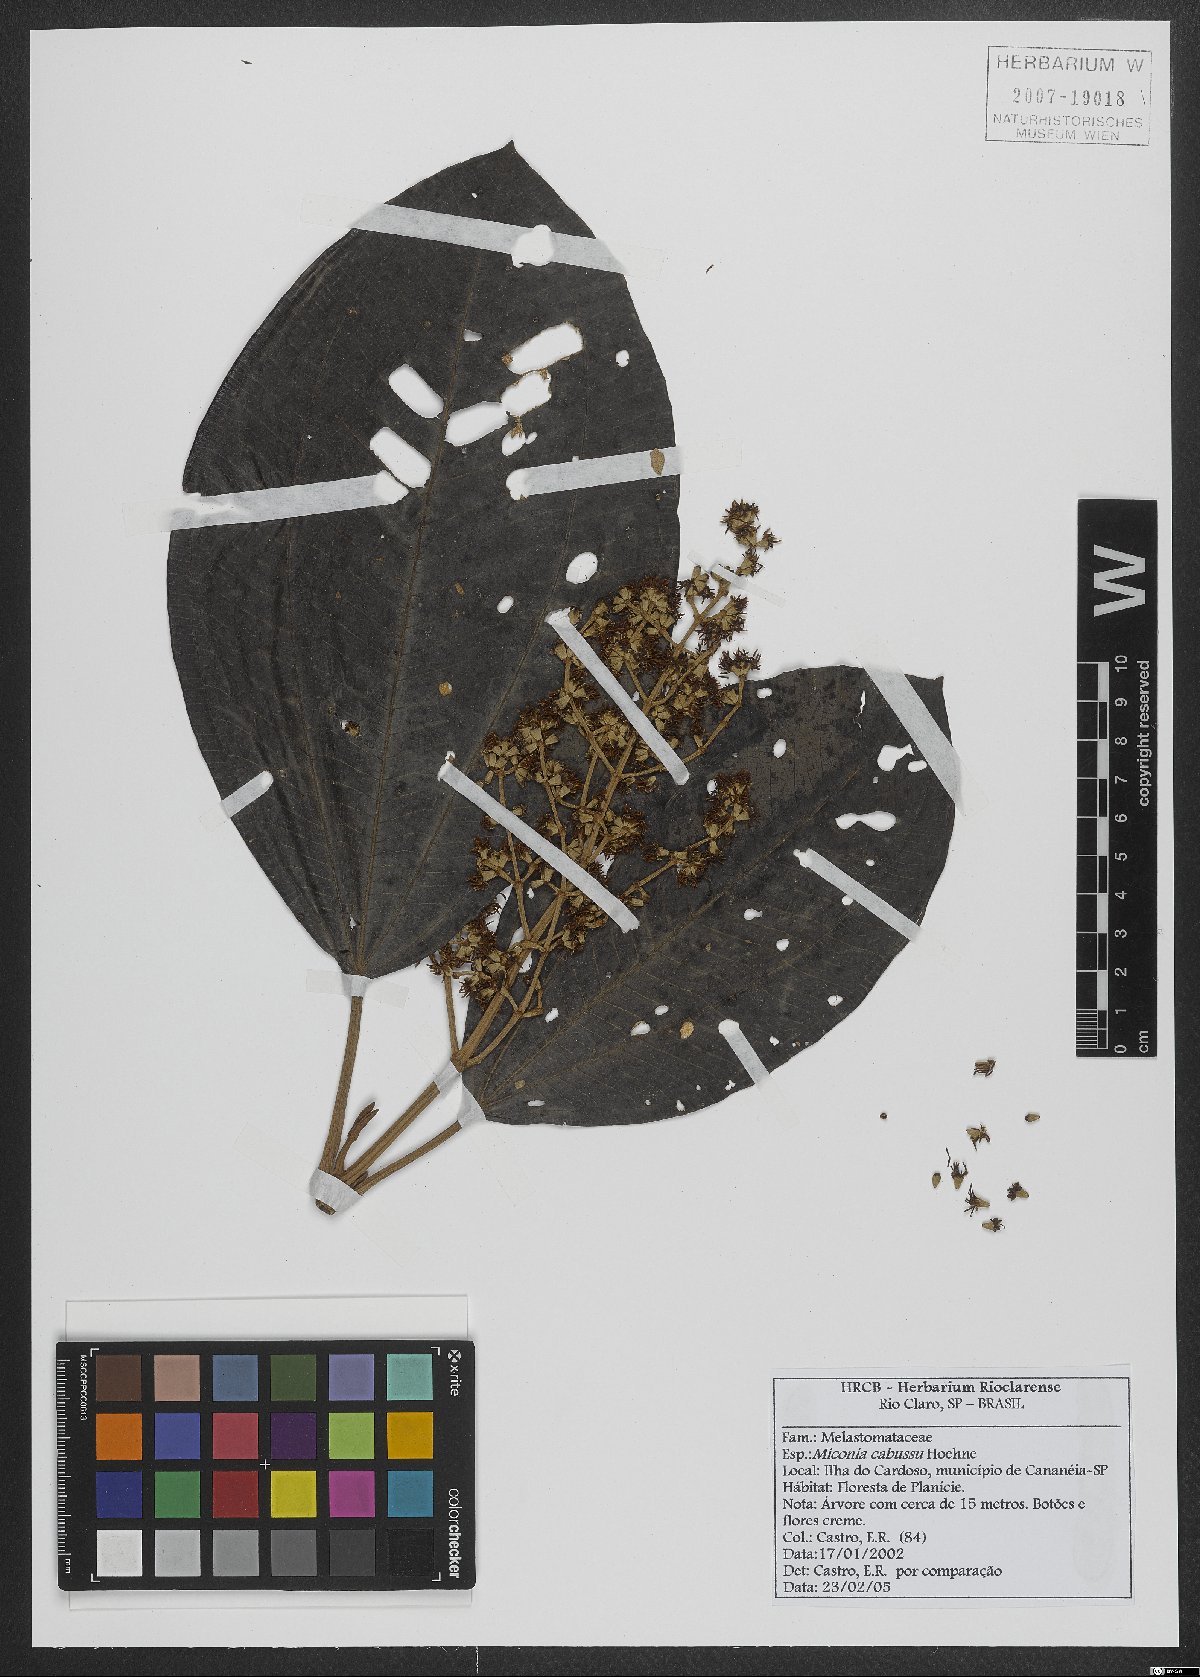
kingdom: Plantae
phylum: Tracheophyta
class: Magnoliopsida
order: Myrtales
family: Melastomataceae
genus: Miconia
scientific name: Miconia cabucu
